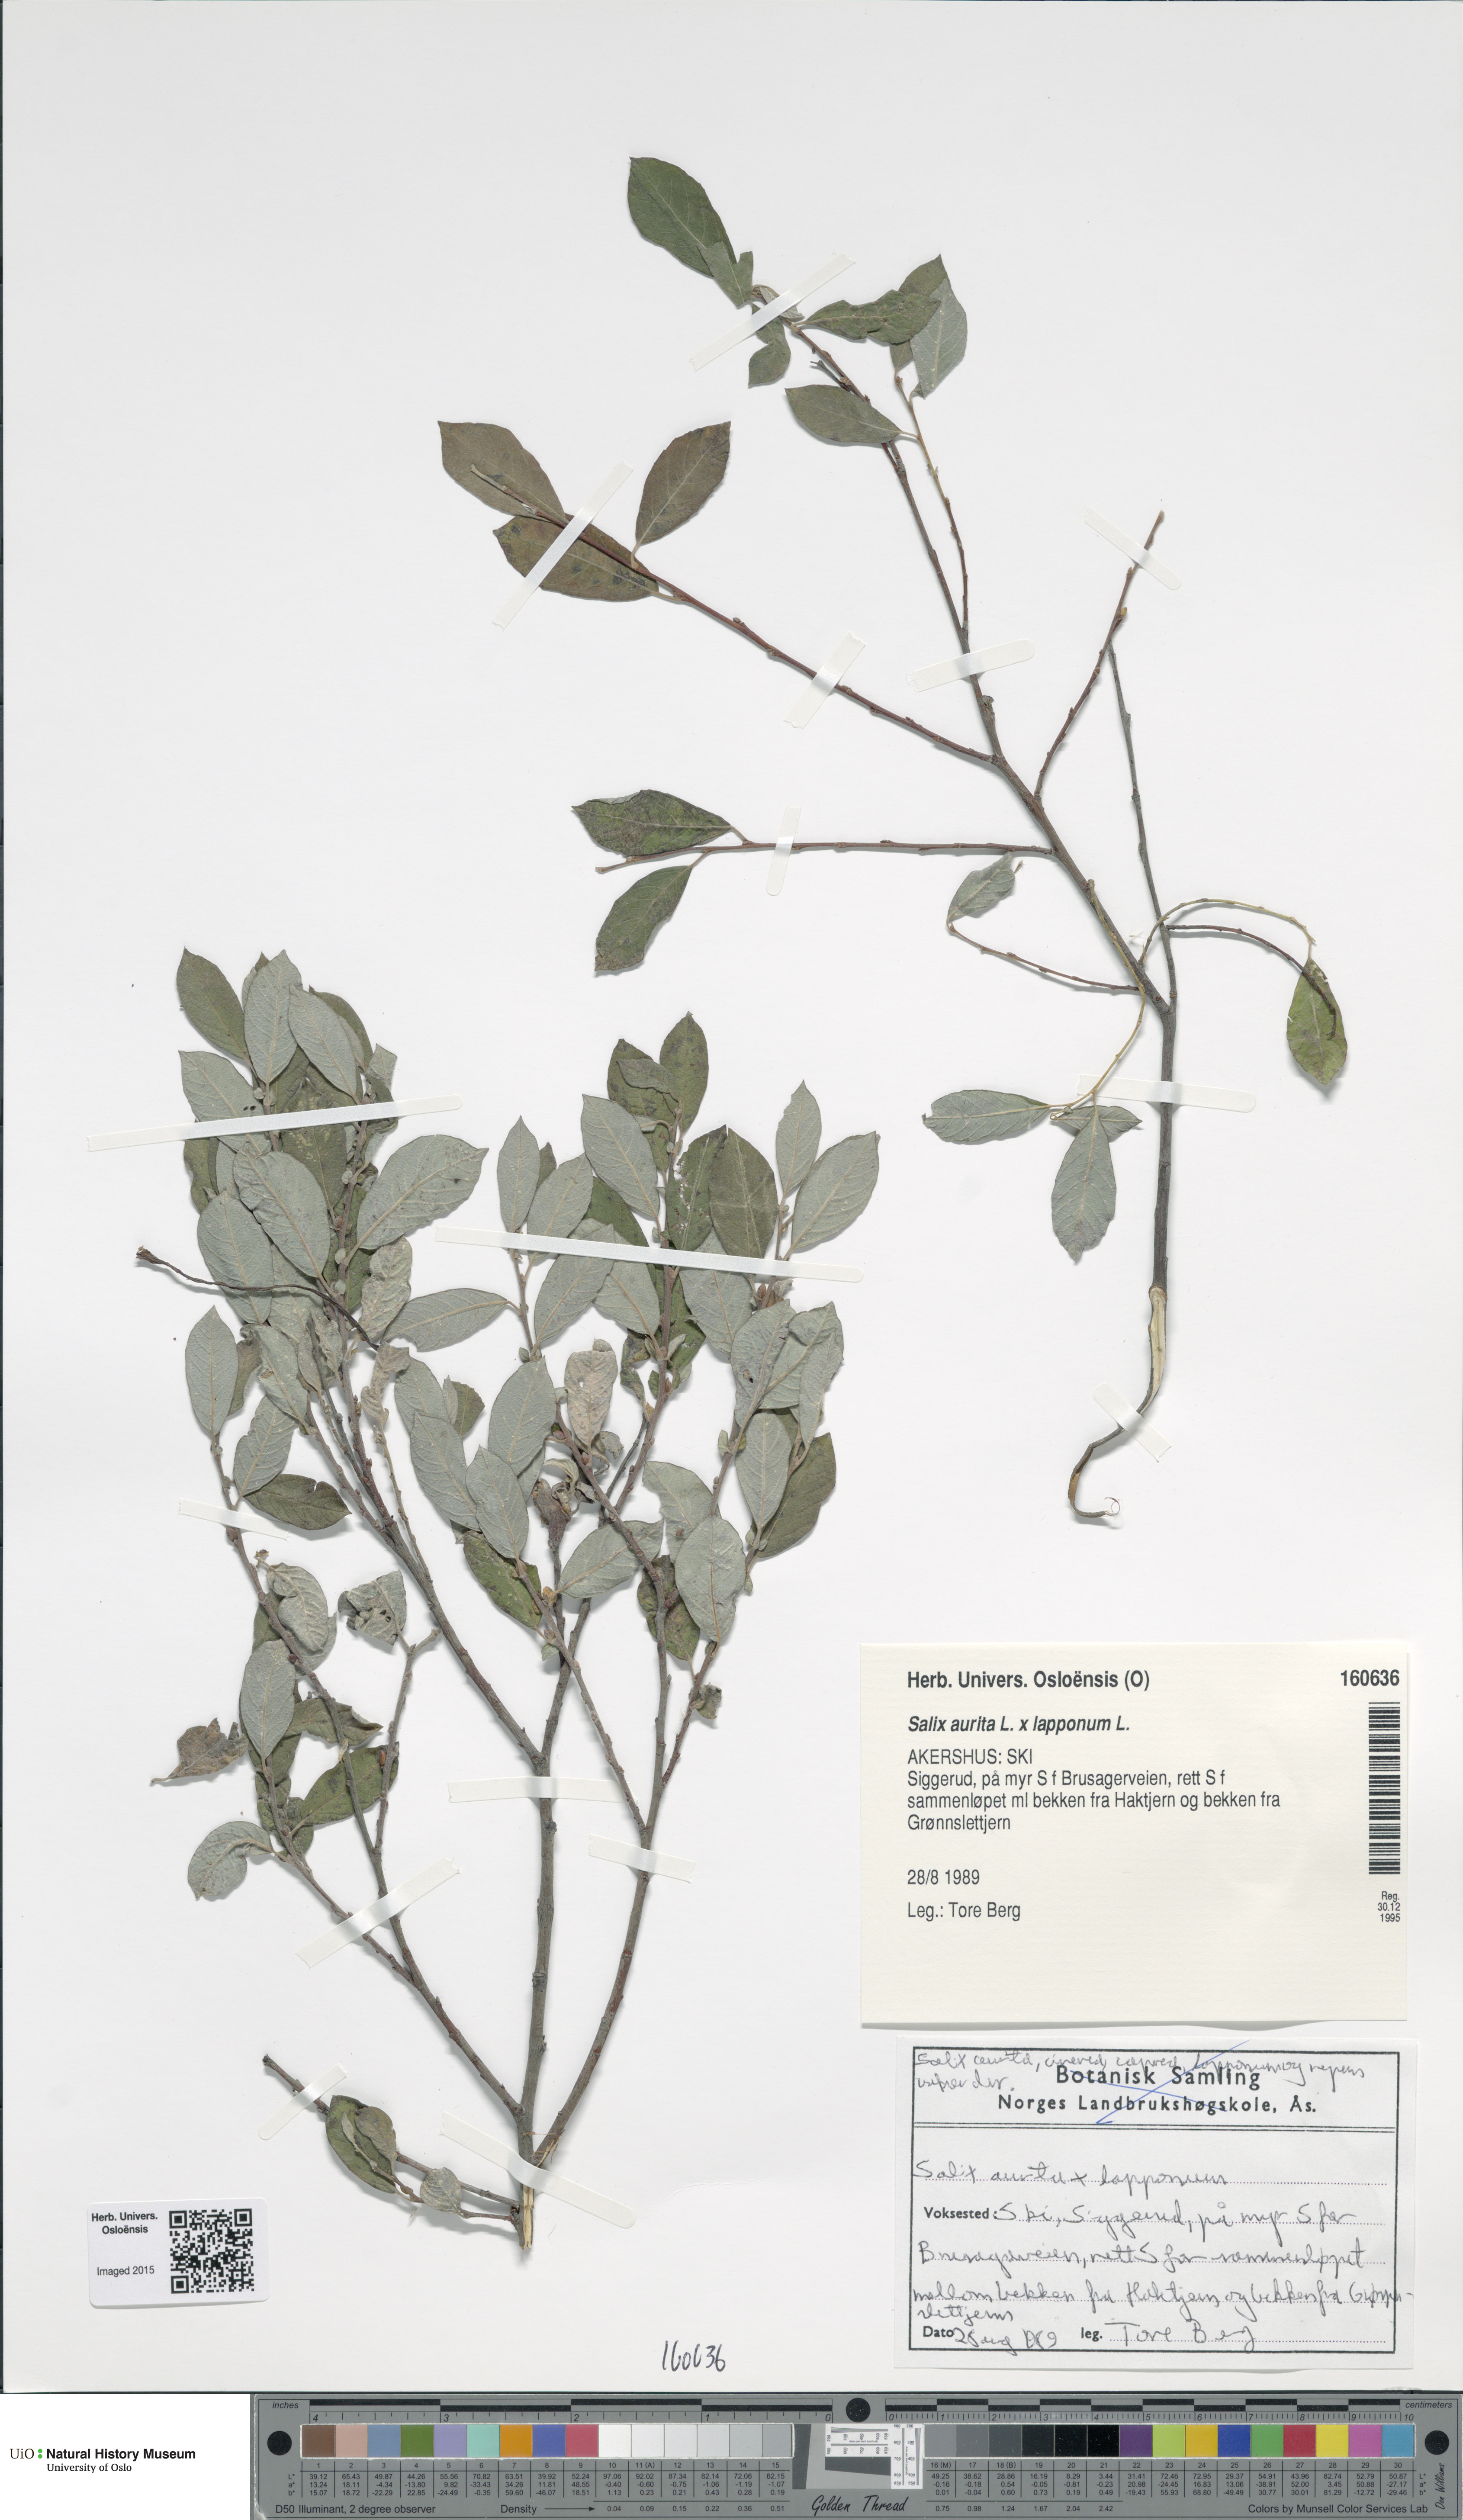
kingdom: Plantae
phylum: Tracheophyta
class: Magnoliopsida
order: Malpighiales
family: Salicaceae
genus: Salix
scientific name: Salix
